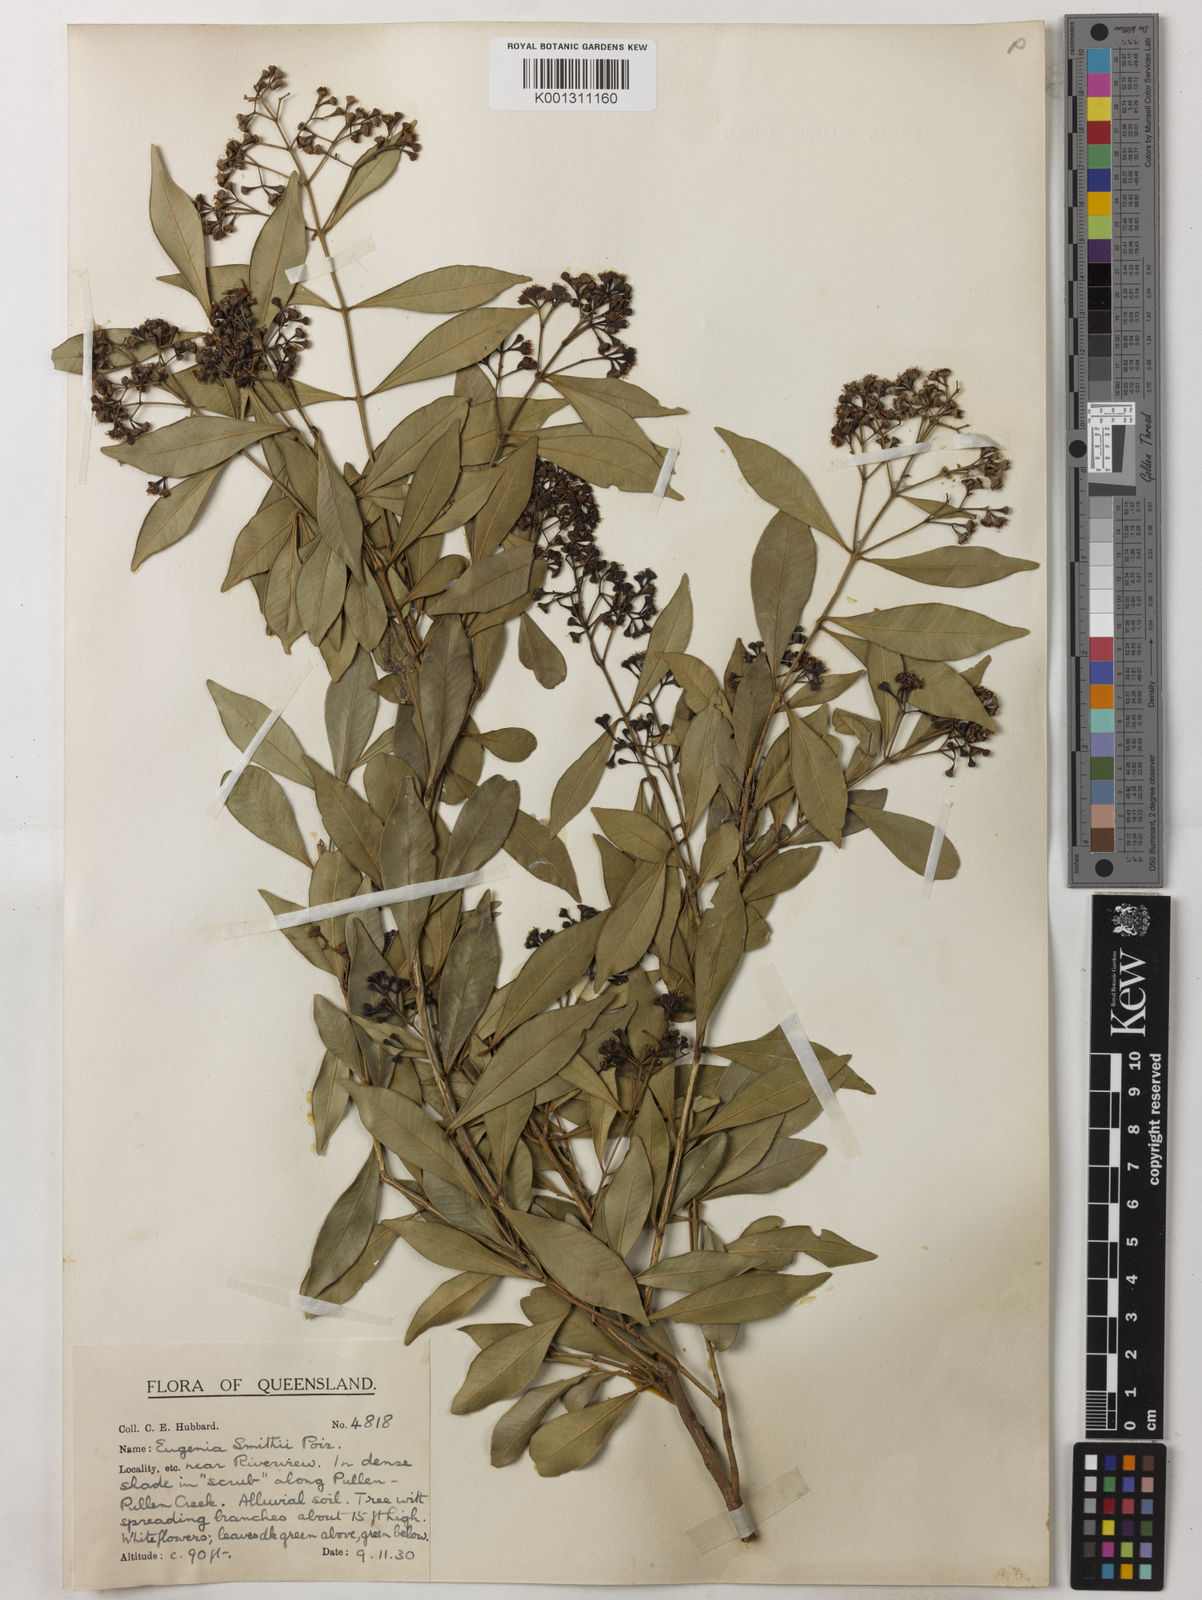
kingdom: Plantae
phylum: Tracheophyta
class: Magnoliopsida
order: Myrtales
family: Myrtaceae
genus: Syzygium
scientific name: Syzygium smithii
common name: Lilly-pilly
